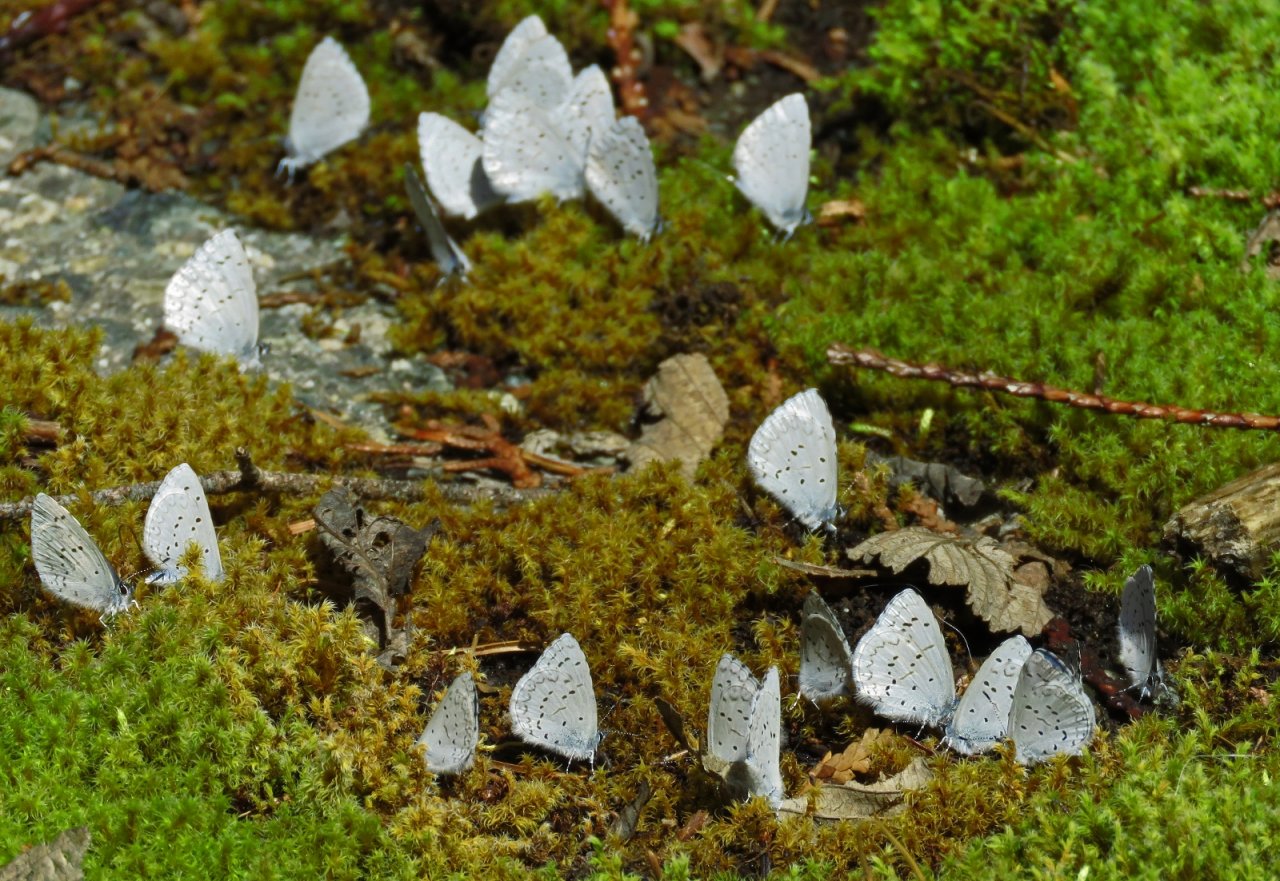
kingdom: Animalia
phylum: Arthropoda
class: Insecta
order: Lepidoptera
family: Lycaenidae
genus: Celastrina
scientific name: Celastrina ladon
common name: Echo Azure
